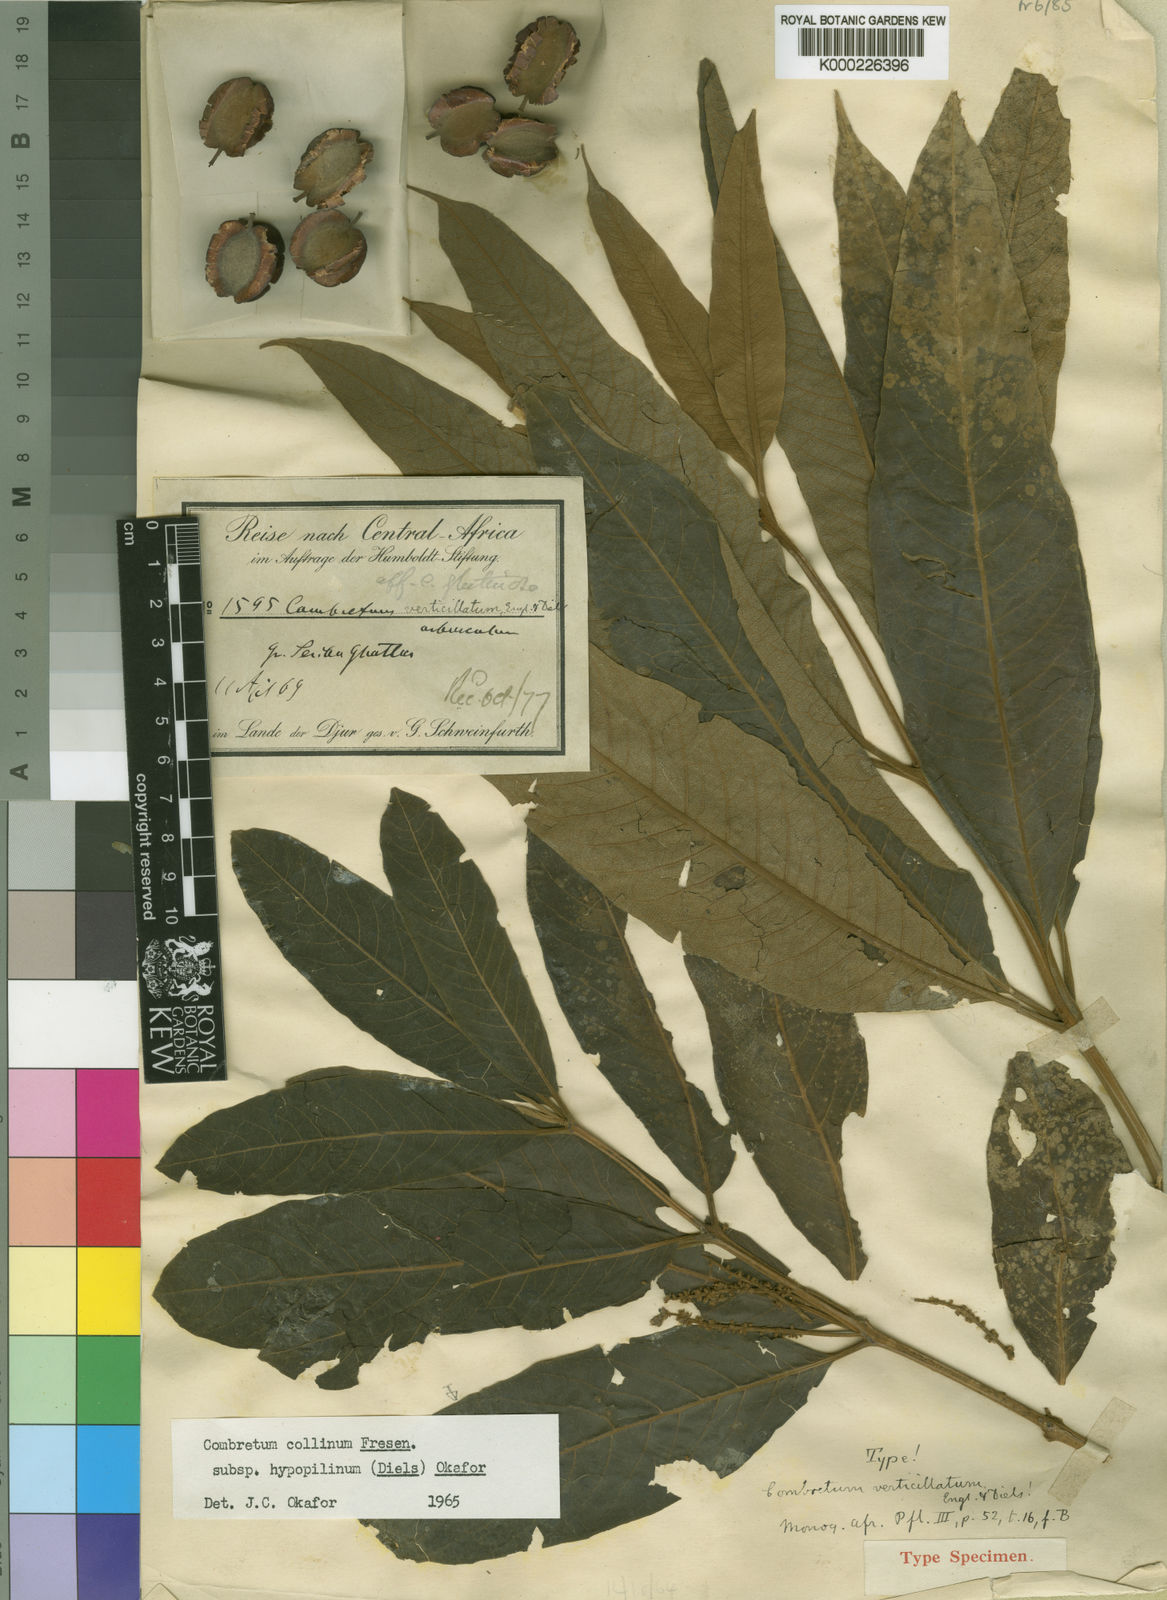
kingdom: Plantae
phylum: Tracheophyta
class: Magnoliopsida
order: Myrtales
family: Combretaceae
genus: Combretum
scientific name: Combretum collinum
